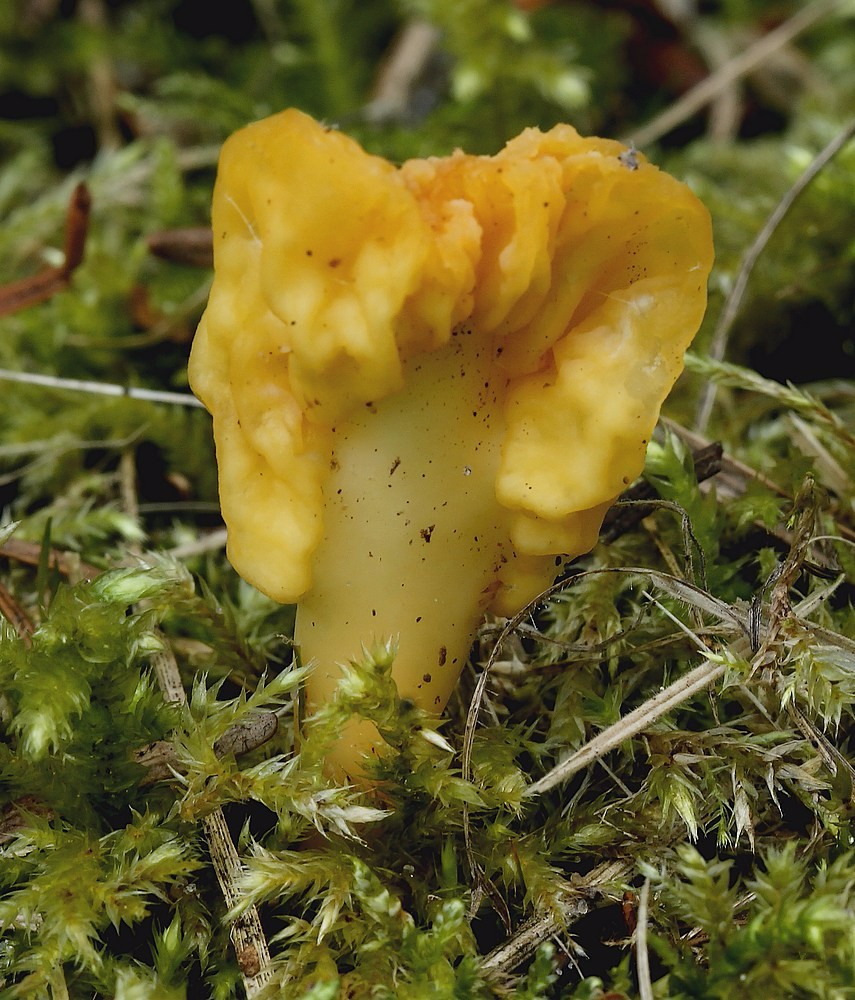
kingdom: Fungi
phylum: Ascomycota
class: Leotiomycetes
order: Rhytismatales
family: Cudoniaceae
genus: Spathularia
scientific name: Spathularia flavida
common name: gul spatelsvamp
